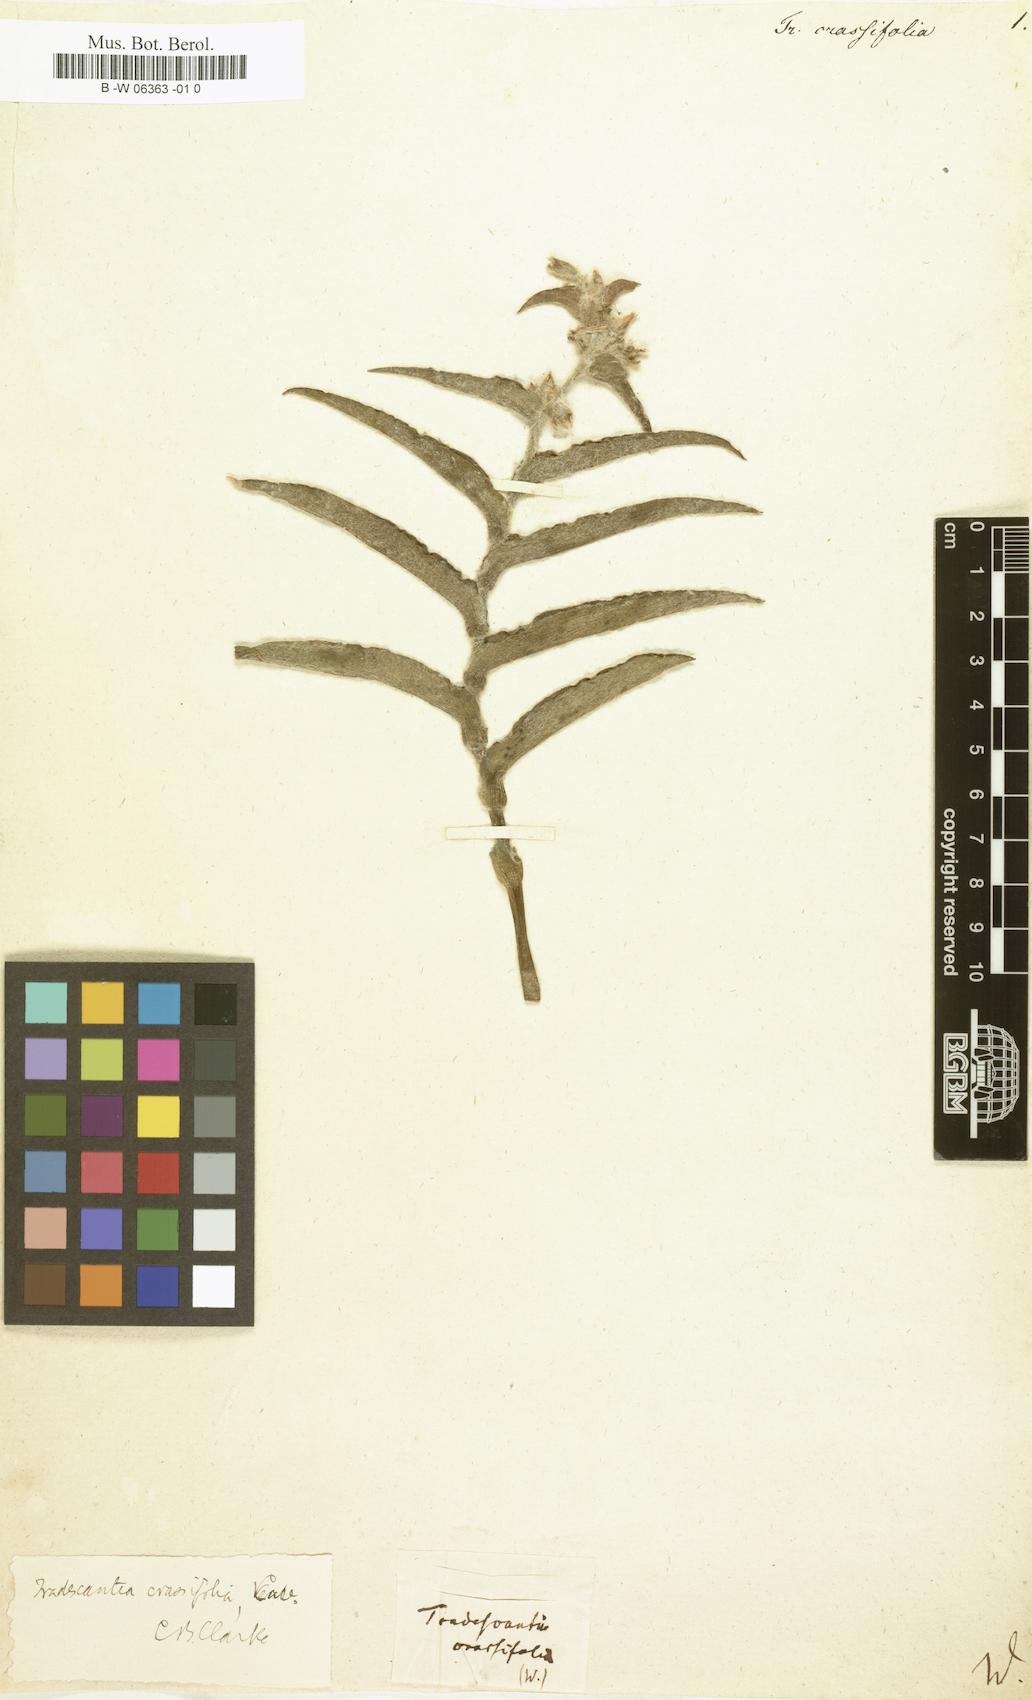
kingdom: Plantae
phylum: Tracheophyta
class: Liliopsida
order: Commelinales
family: Commelinaceae
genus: Tradescantia
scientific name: Tradescantia crassifolia
